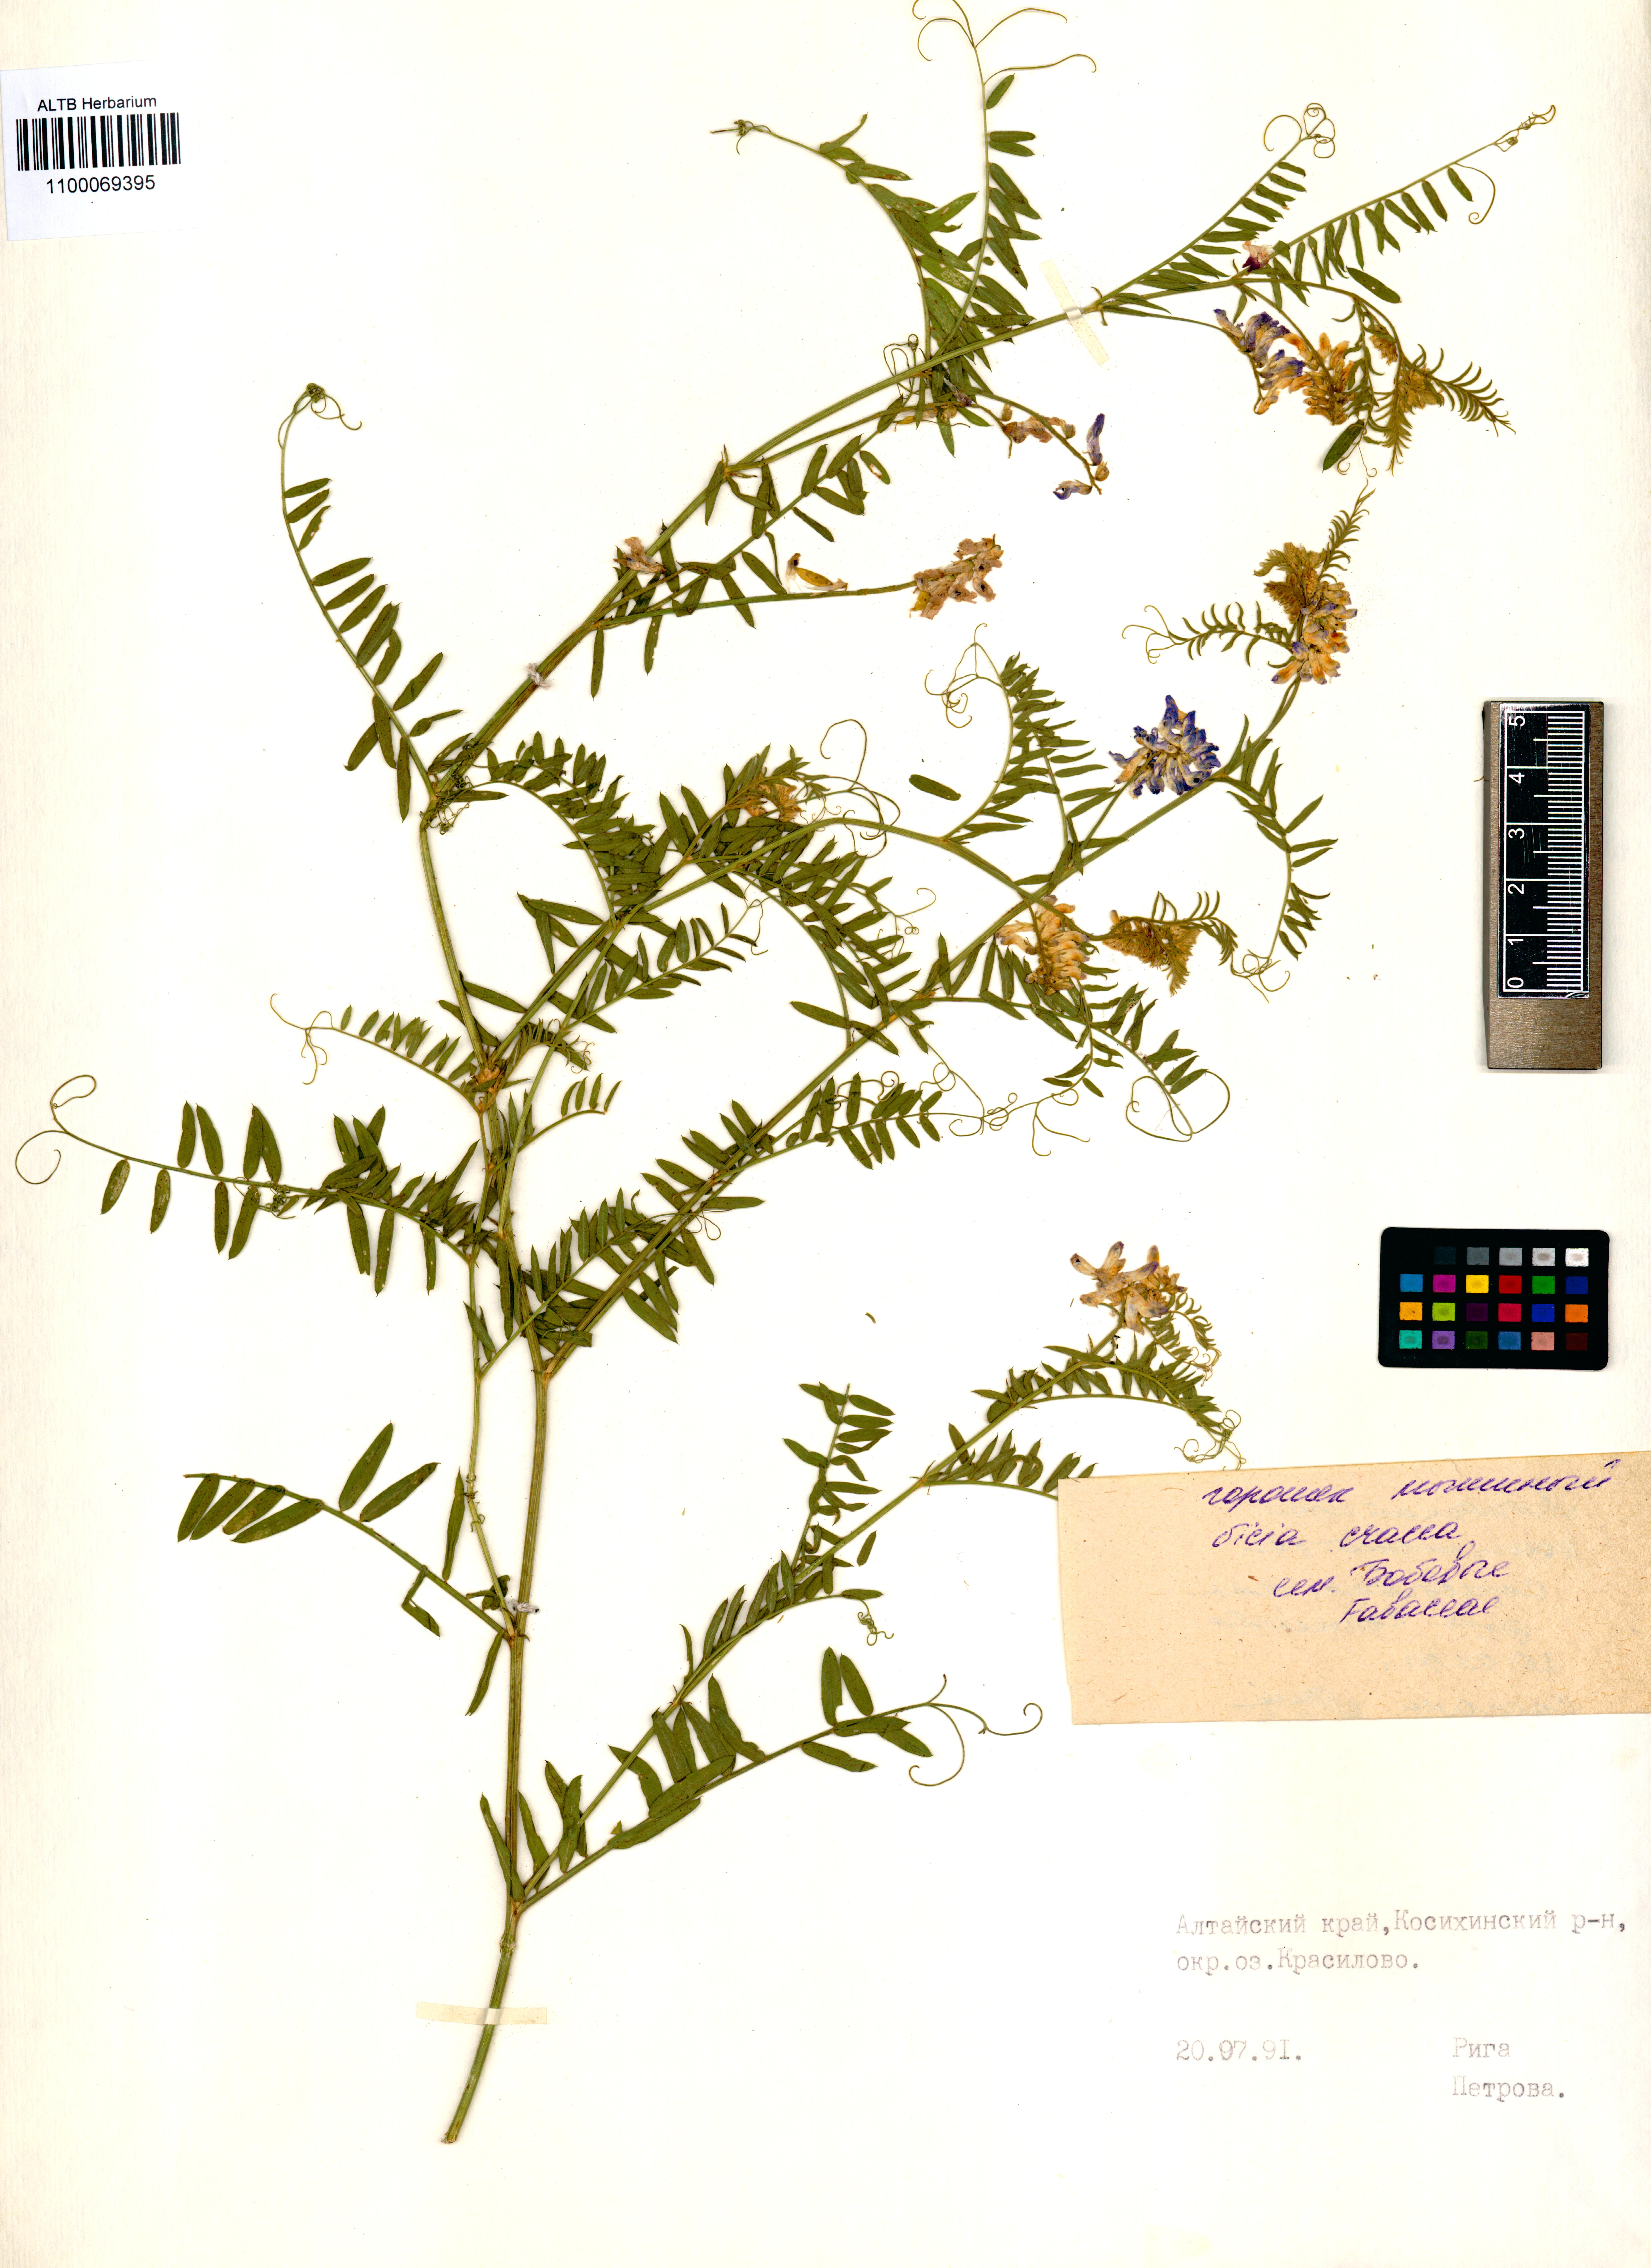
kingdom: Plantae
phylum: Tracheophyta
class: Magnoliopsida
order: Fabales
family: Fabaceae
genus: Vicia
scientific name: Vicia cracca
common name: Bird vetch
